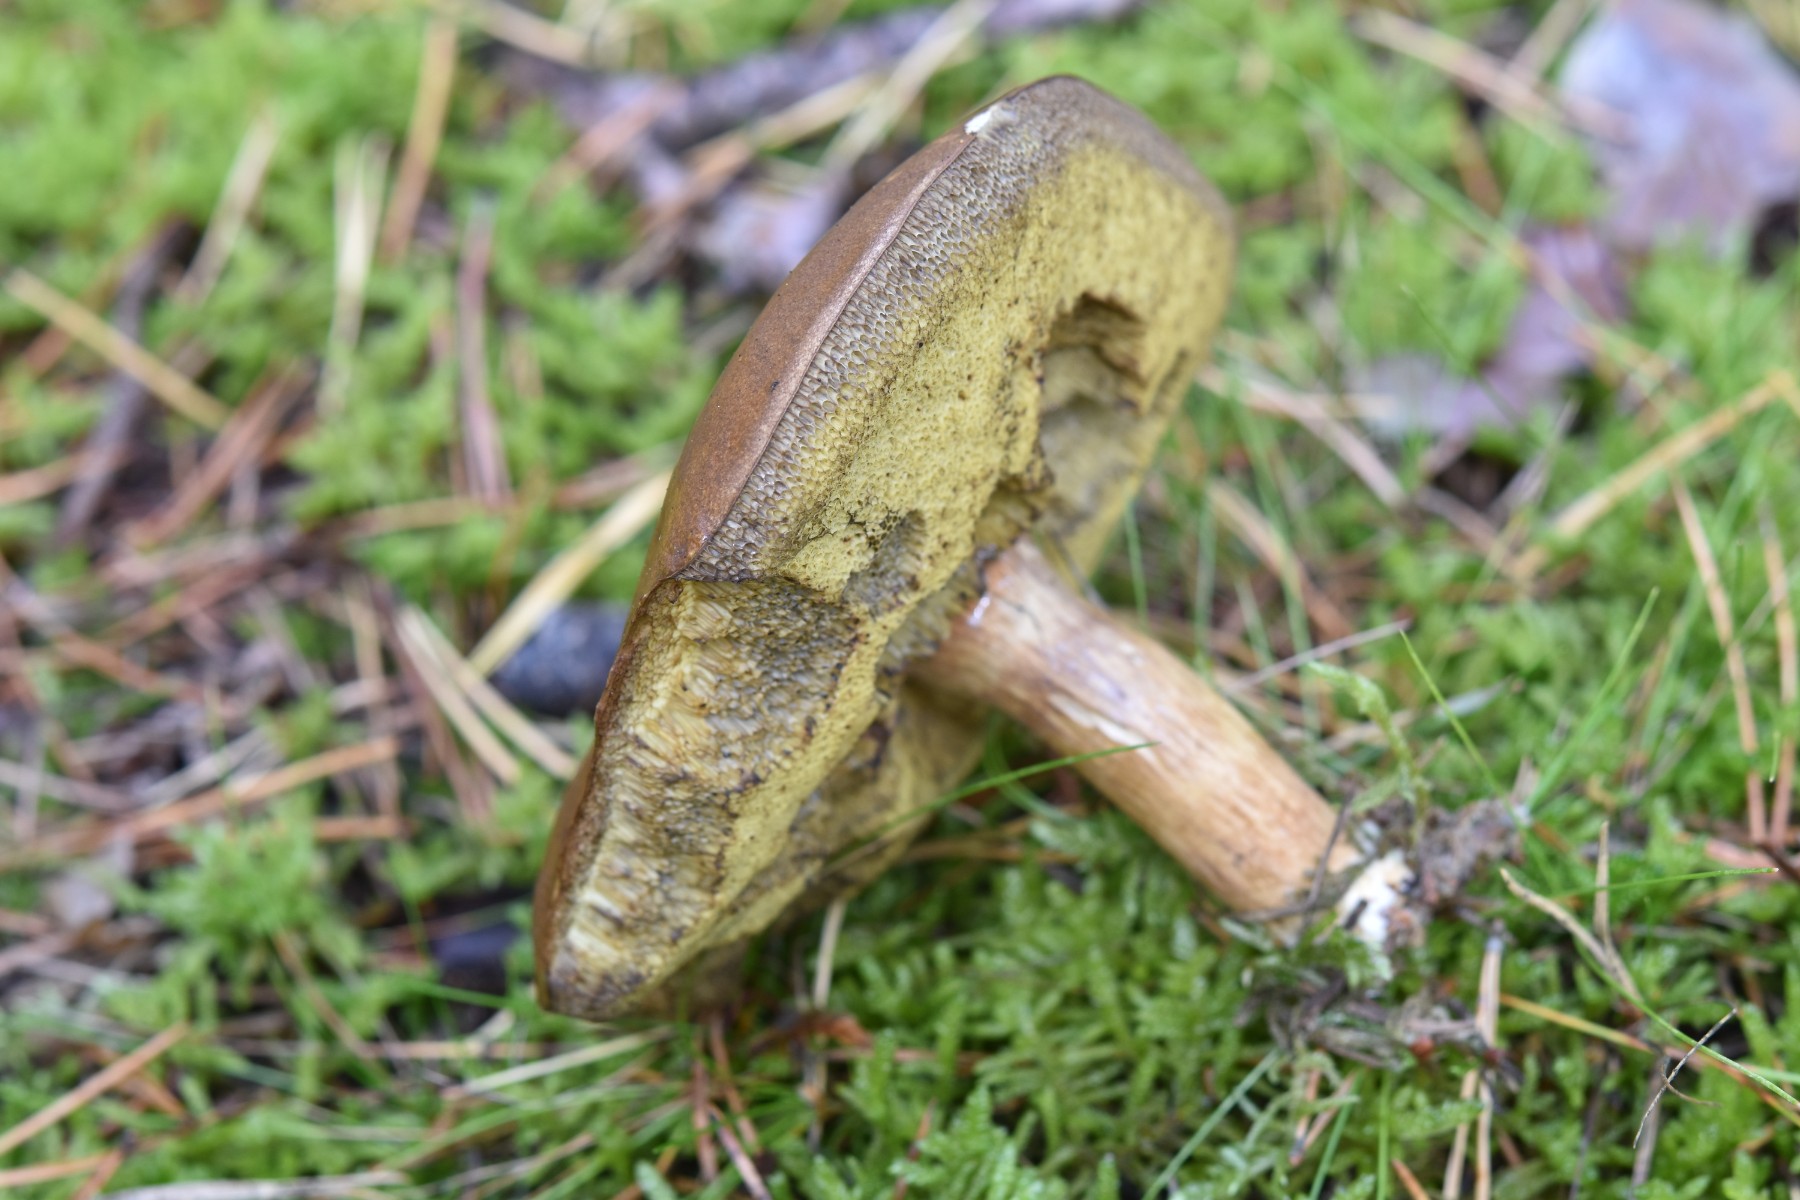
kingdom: Fungi
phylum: Basidiomycota
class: Agaricomycetes
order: Boletales
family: Boletaceae
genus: Imleria
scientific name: Imleria badia
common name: brunstokket rørhat
